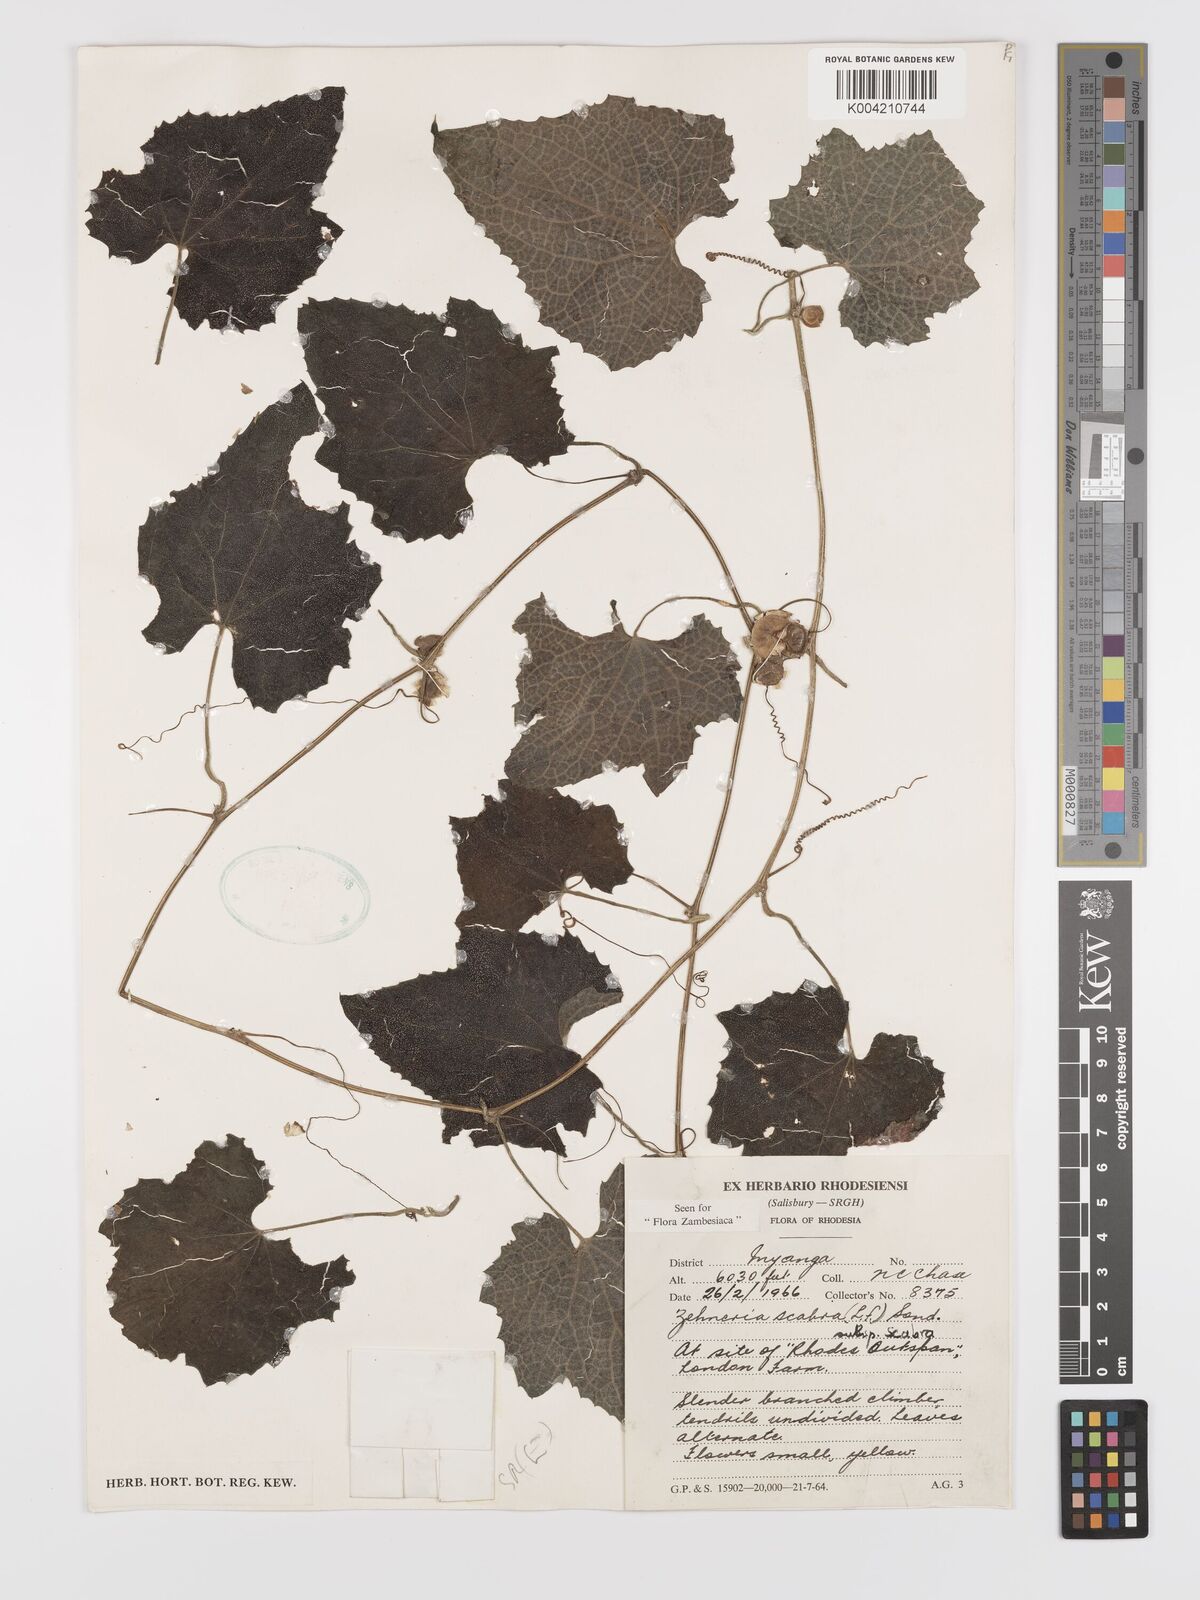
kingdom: Plantae
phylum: Tracheophyta
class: Magnoliopsida
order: Cucurbitales
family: Cucurbitaceae
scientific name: Cucurbitaceae
